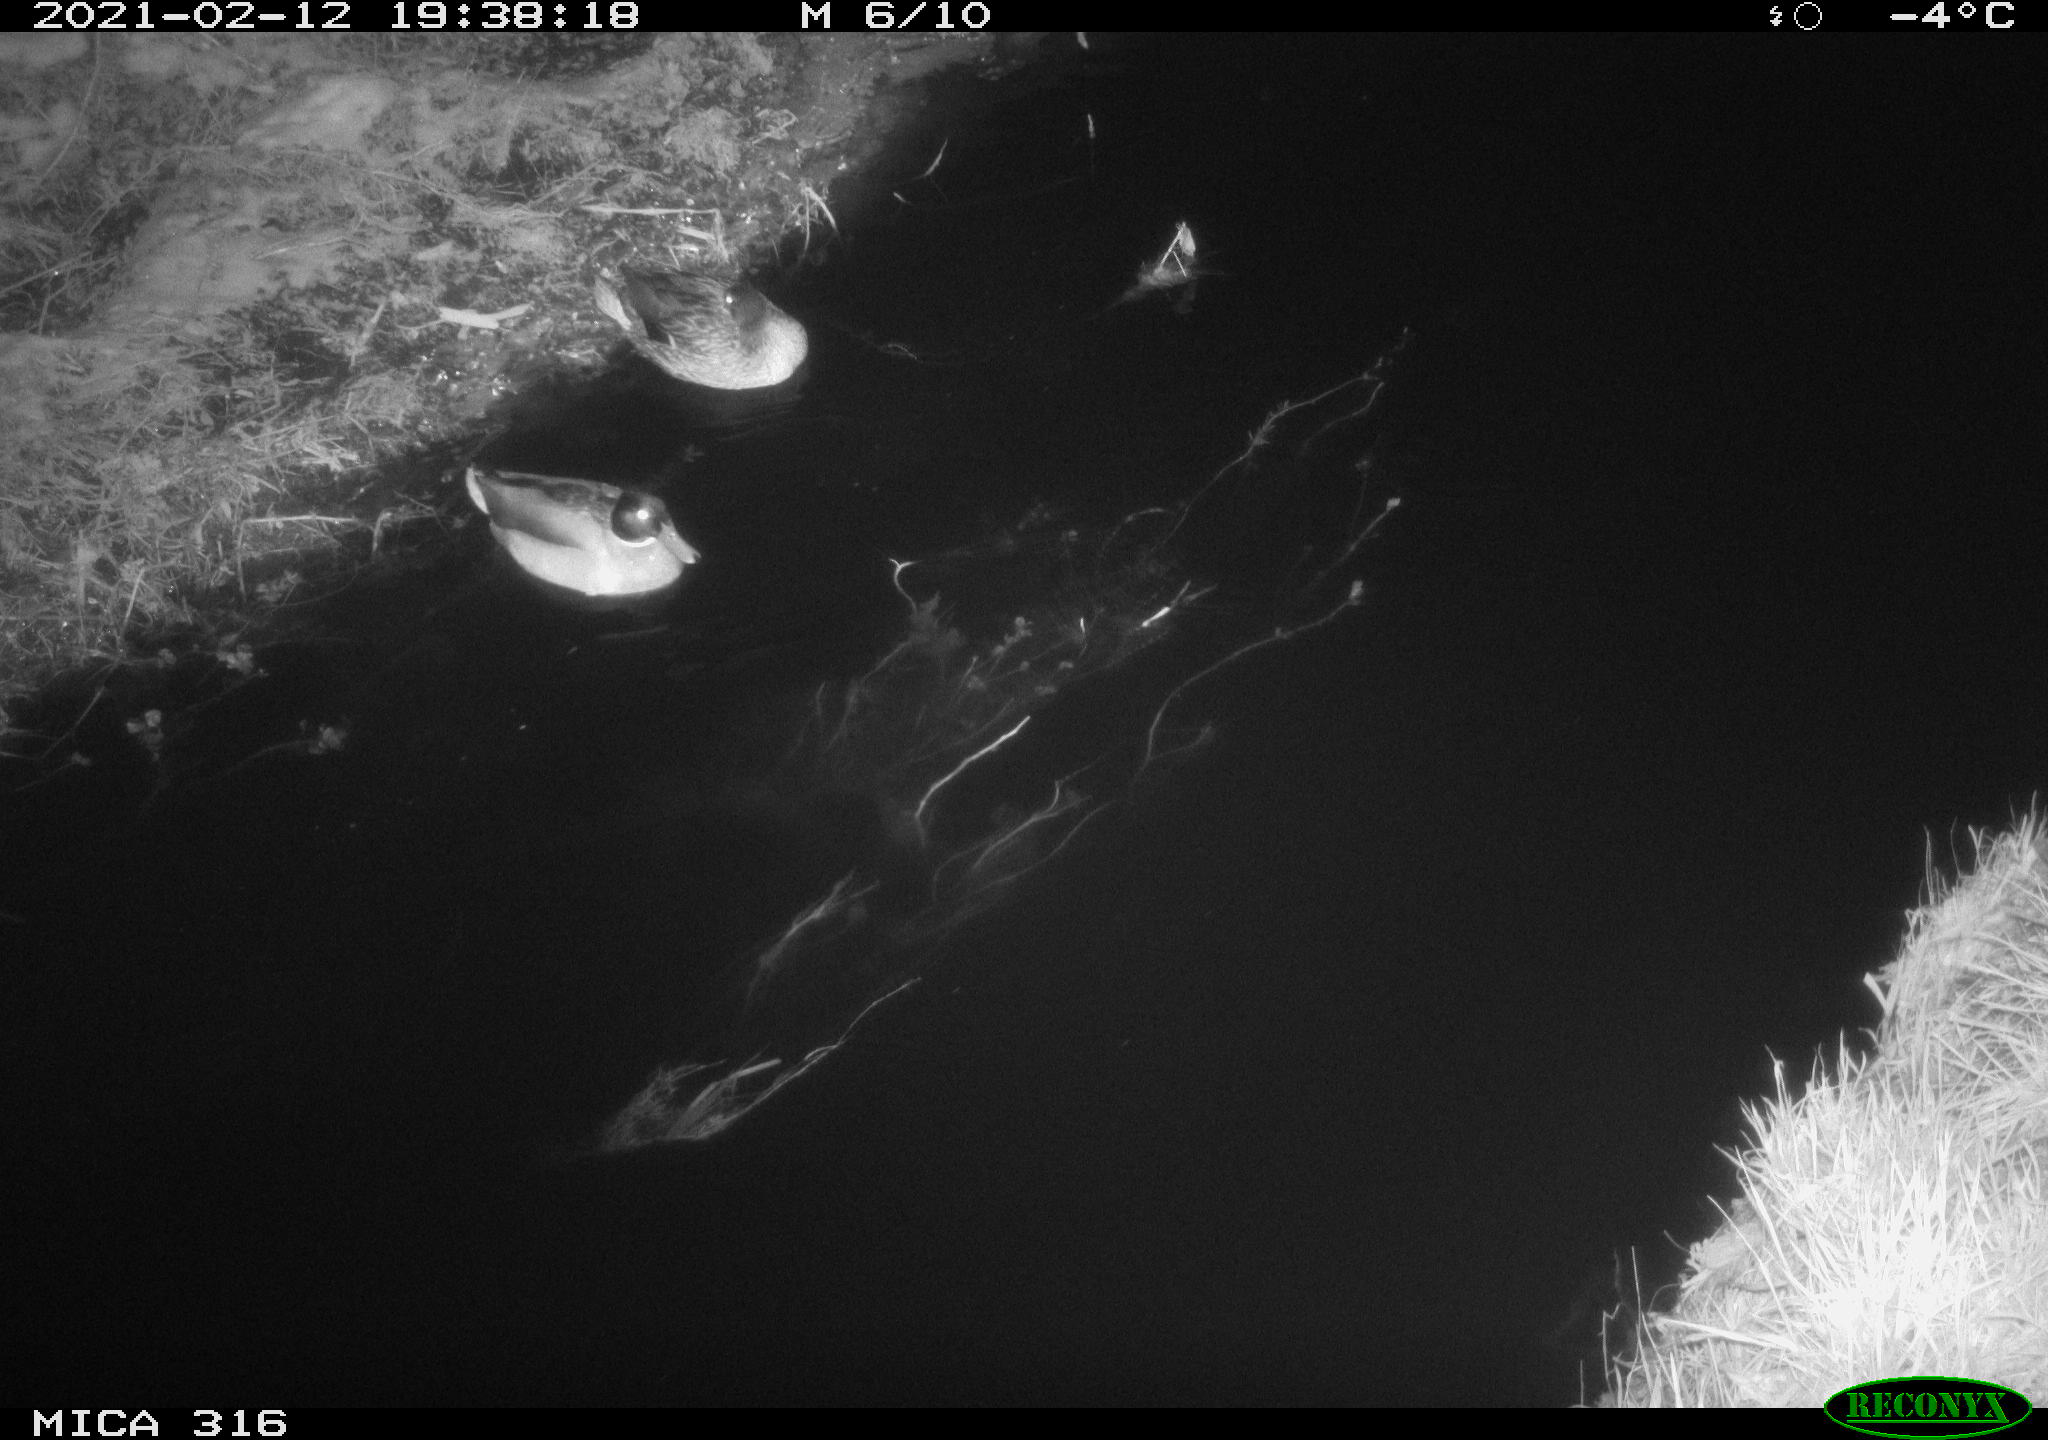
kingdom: Animalia
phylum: Chordata
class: Aves
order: Anseriformes
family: Anatidae
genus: Anas
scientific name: Anas platyrhynchos
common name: Mallard
